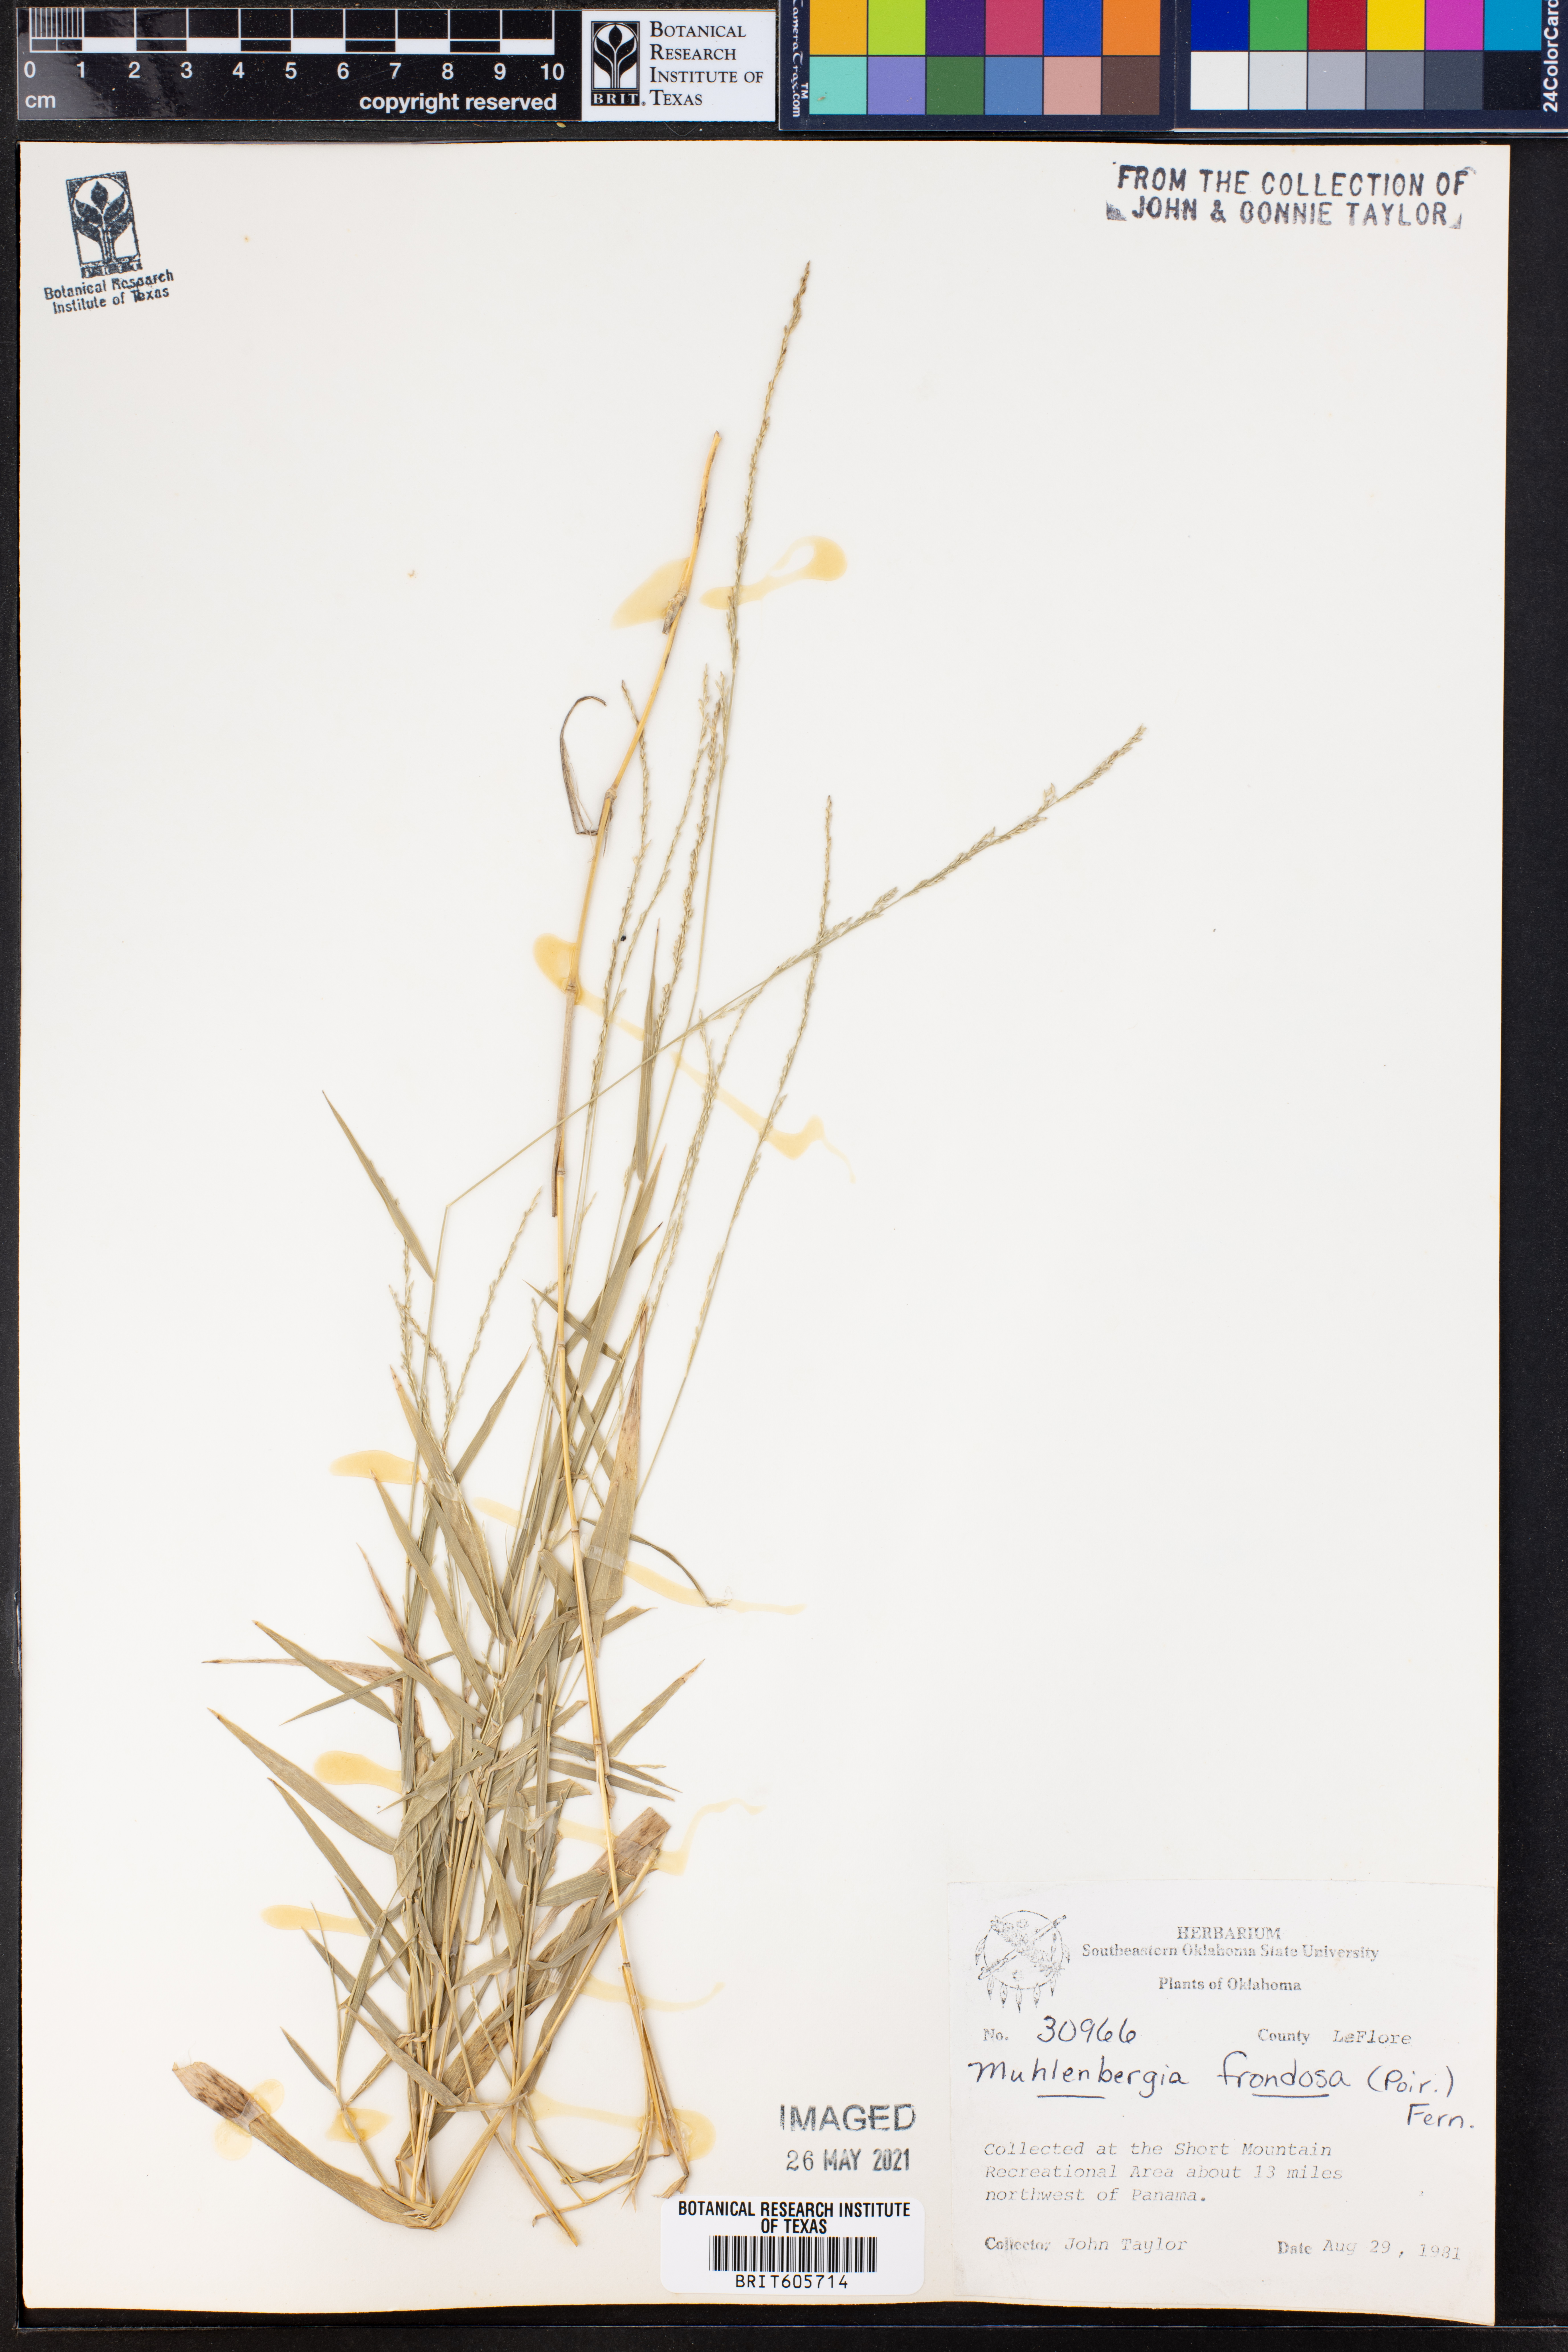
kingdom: Plantae
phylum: Tracheophyta
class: Liliopsida
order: Poales
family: Poaceae
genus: Muhlenbergia
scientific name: Muhlenbergia frondosa
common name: Common satingrass
